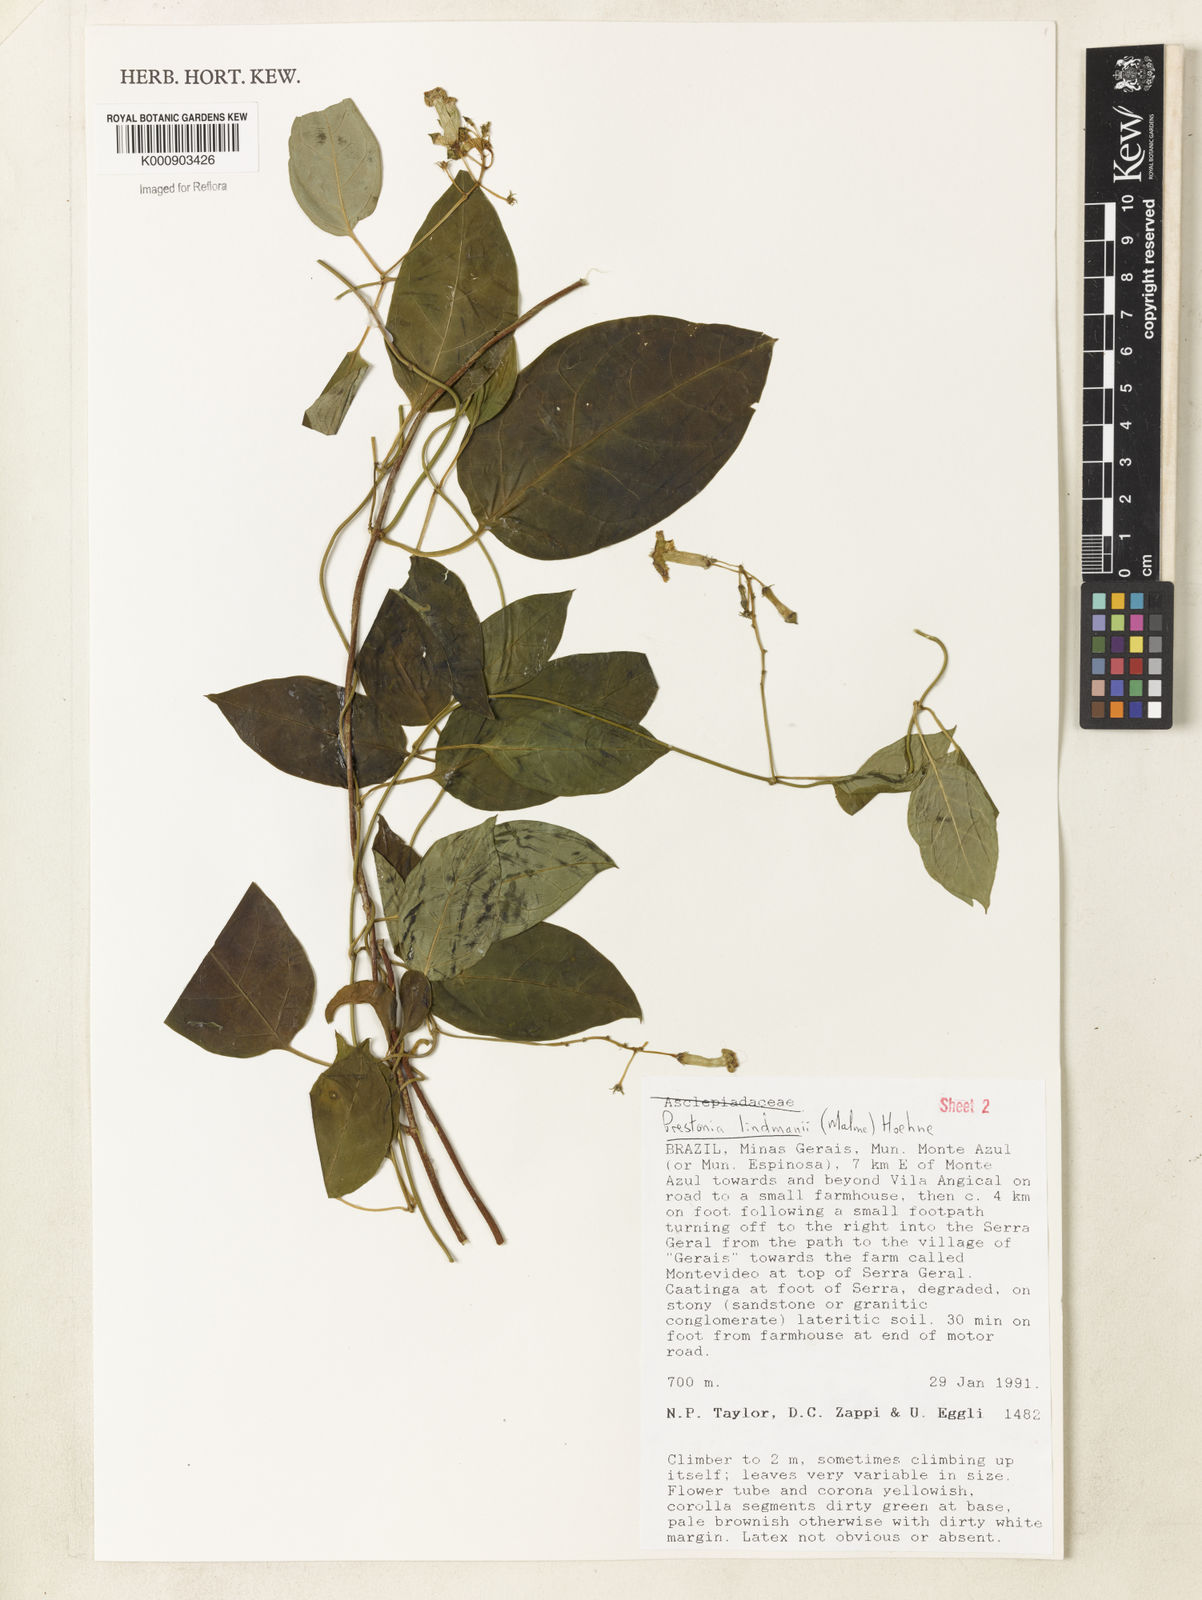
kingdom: Plantae
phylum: Tracheophyta
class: Magnoliopsida
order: Gentianales
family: Apocynaceae
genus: Prestonia
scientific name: Prestonia lindmanii
